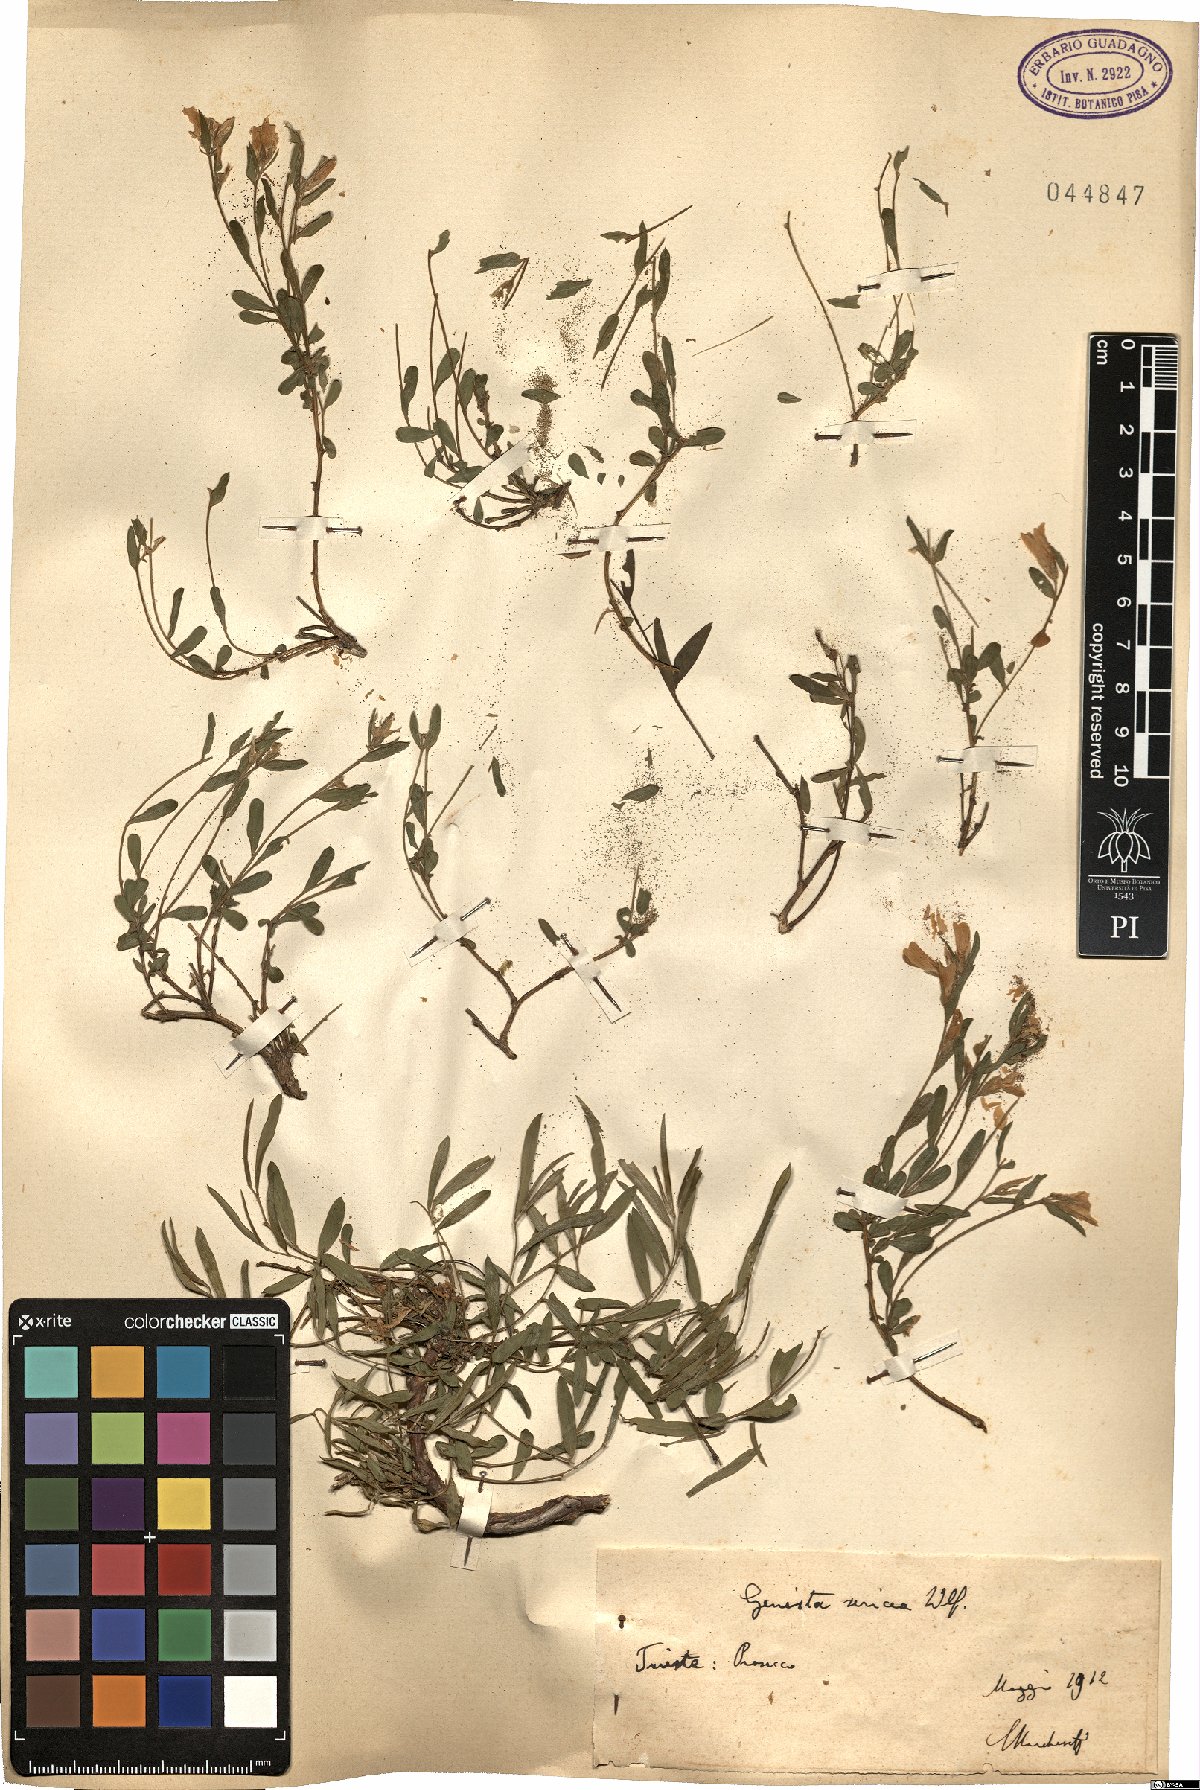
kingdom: Plantae
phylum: Tracheophyta
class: Magnoliopsida
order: Fabales
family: Fabaceae
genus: Genista
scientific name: Genista sericea
